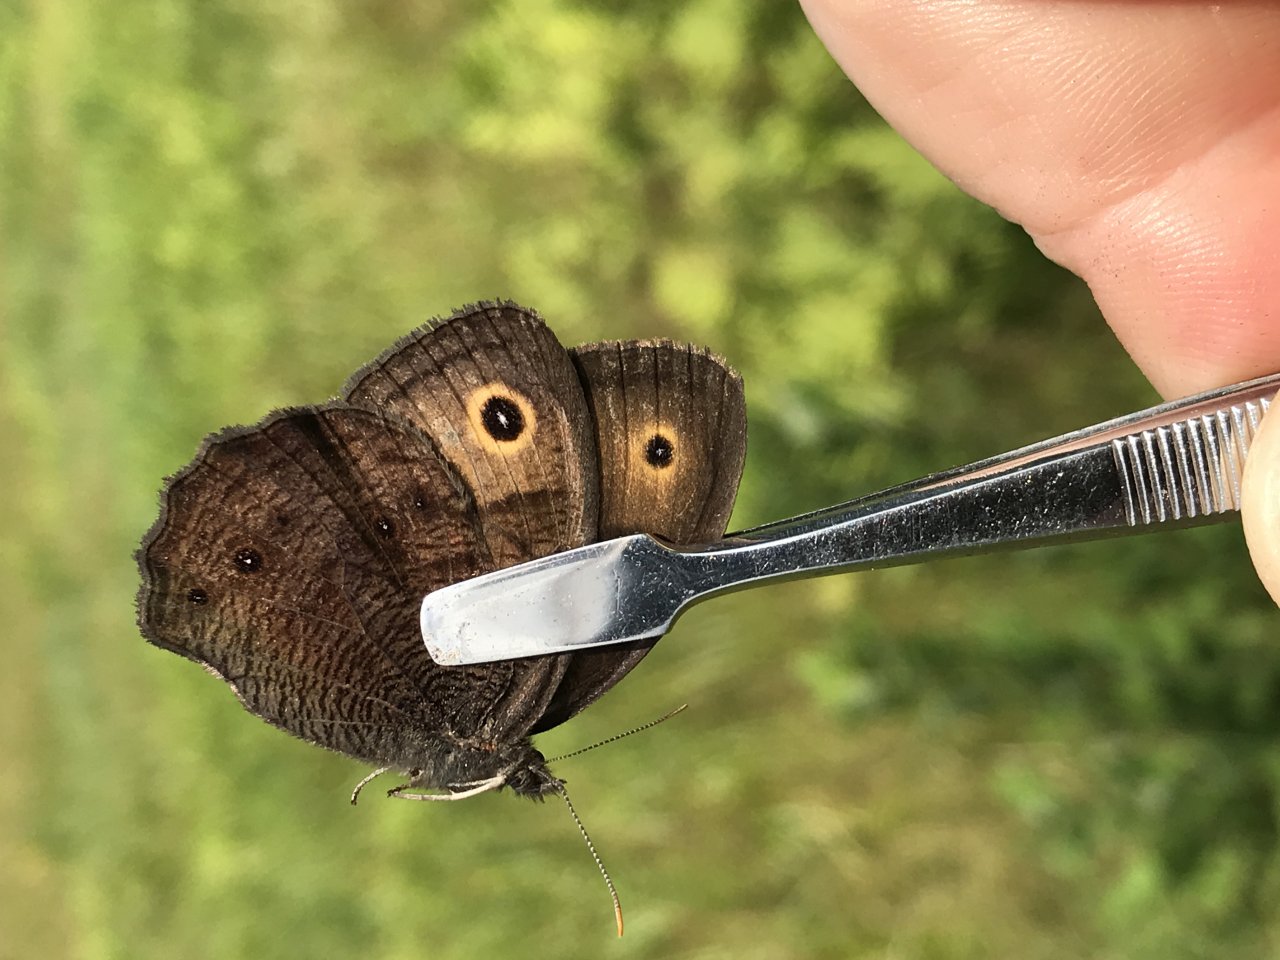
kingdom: Animalia
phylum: Arthropoda
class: Insecta
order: Lepidoptera
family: Nymphalidae
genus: Cercyonis
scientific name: Cercyonis pegala
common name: Common Wood-Nymph
